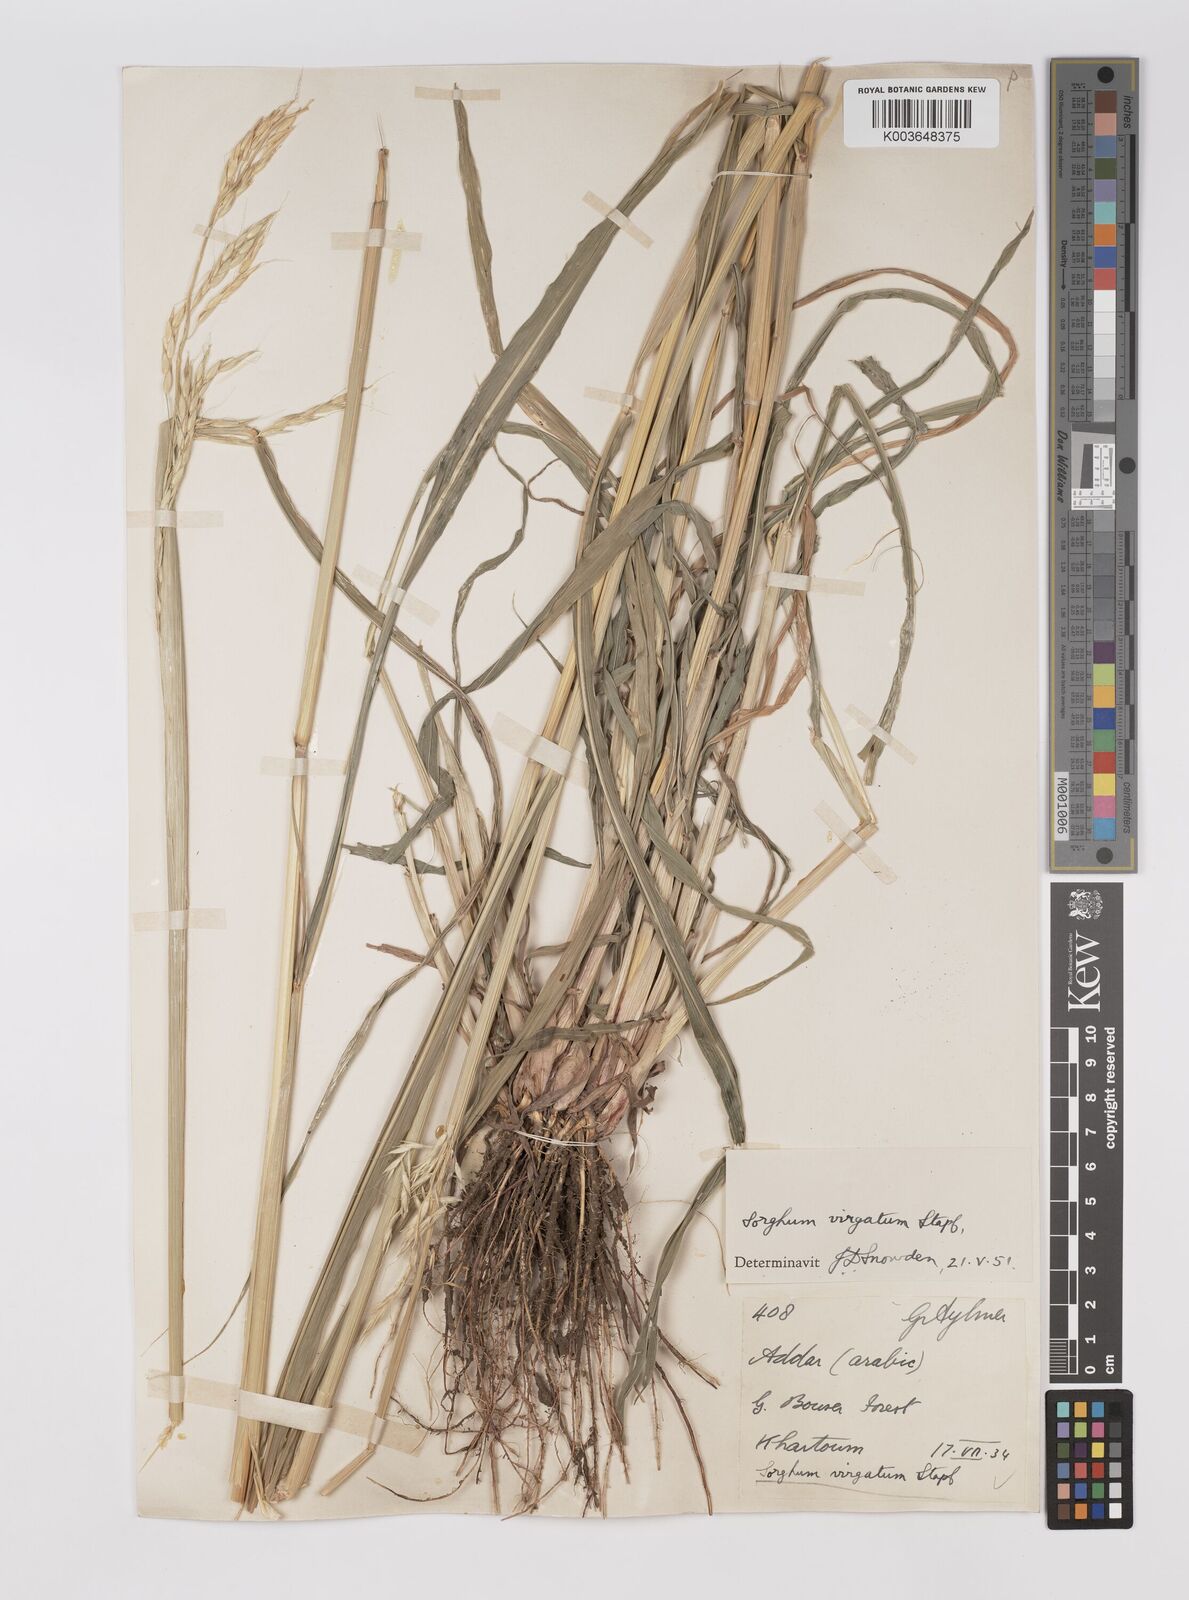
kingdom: Plantae
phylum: Tracheophyta
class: Liliopsida
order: Poales
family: Poaceae
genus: Sorghum
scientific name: Sorghum virgatum
